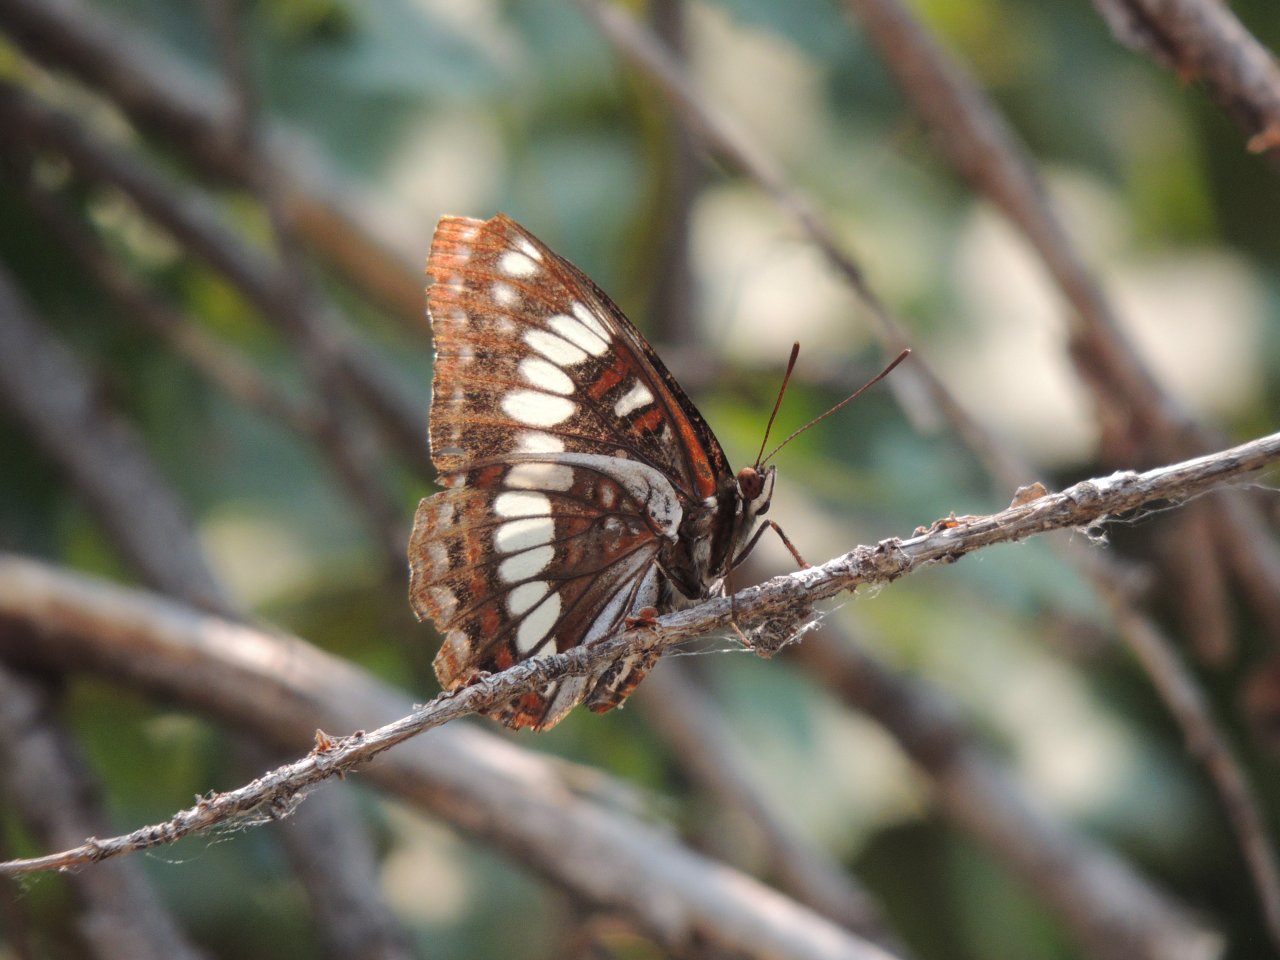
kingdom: Animalia
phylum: Arthropoda
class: Insecta
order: Lepidoptera
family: Nymphalidae
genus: Limenitis
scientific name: Limenitis lorquini
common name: Lorquin's Admiral
